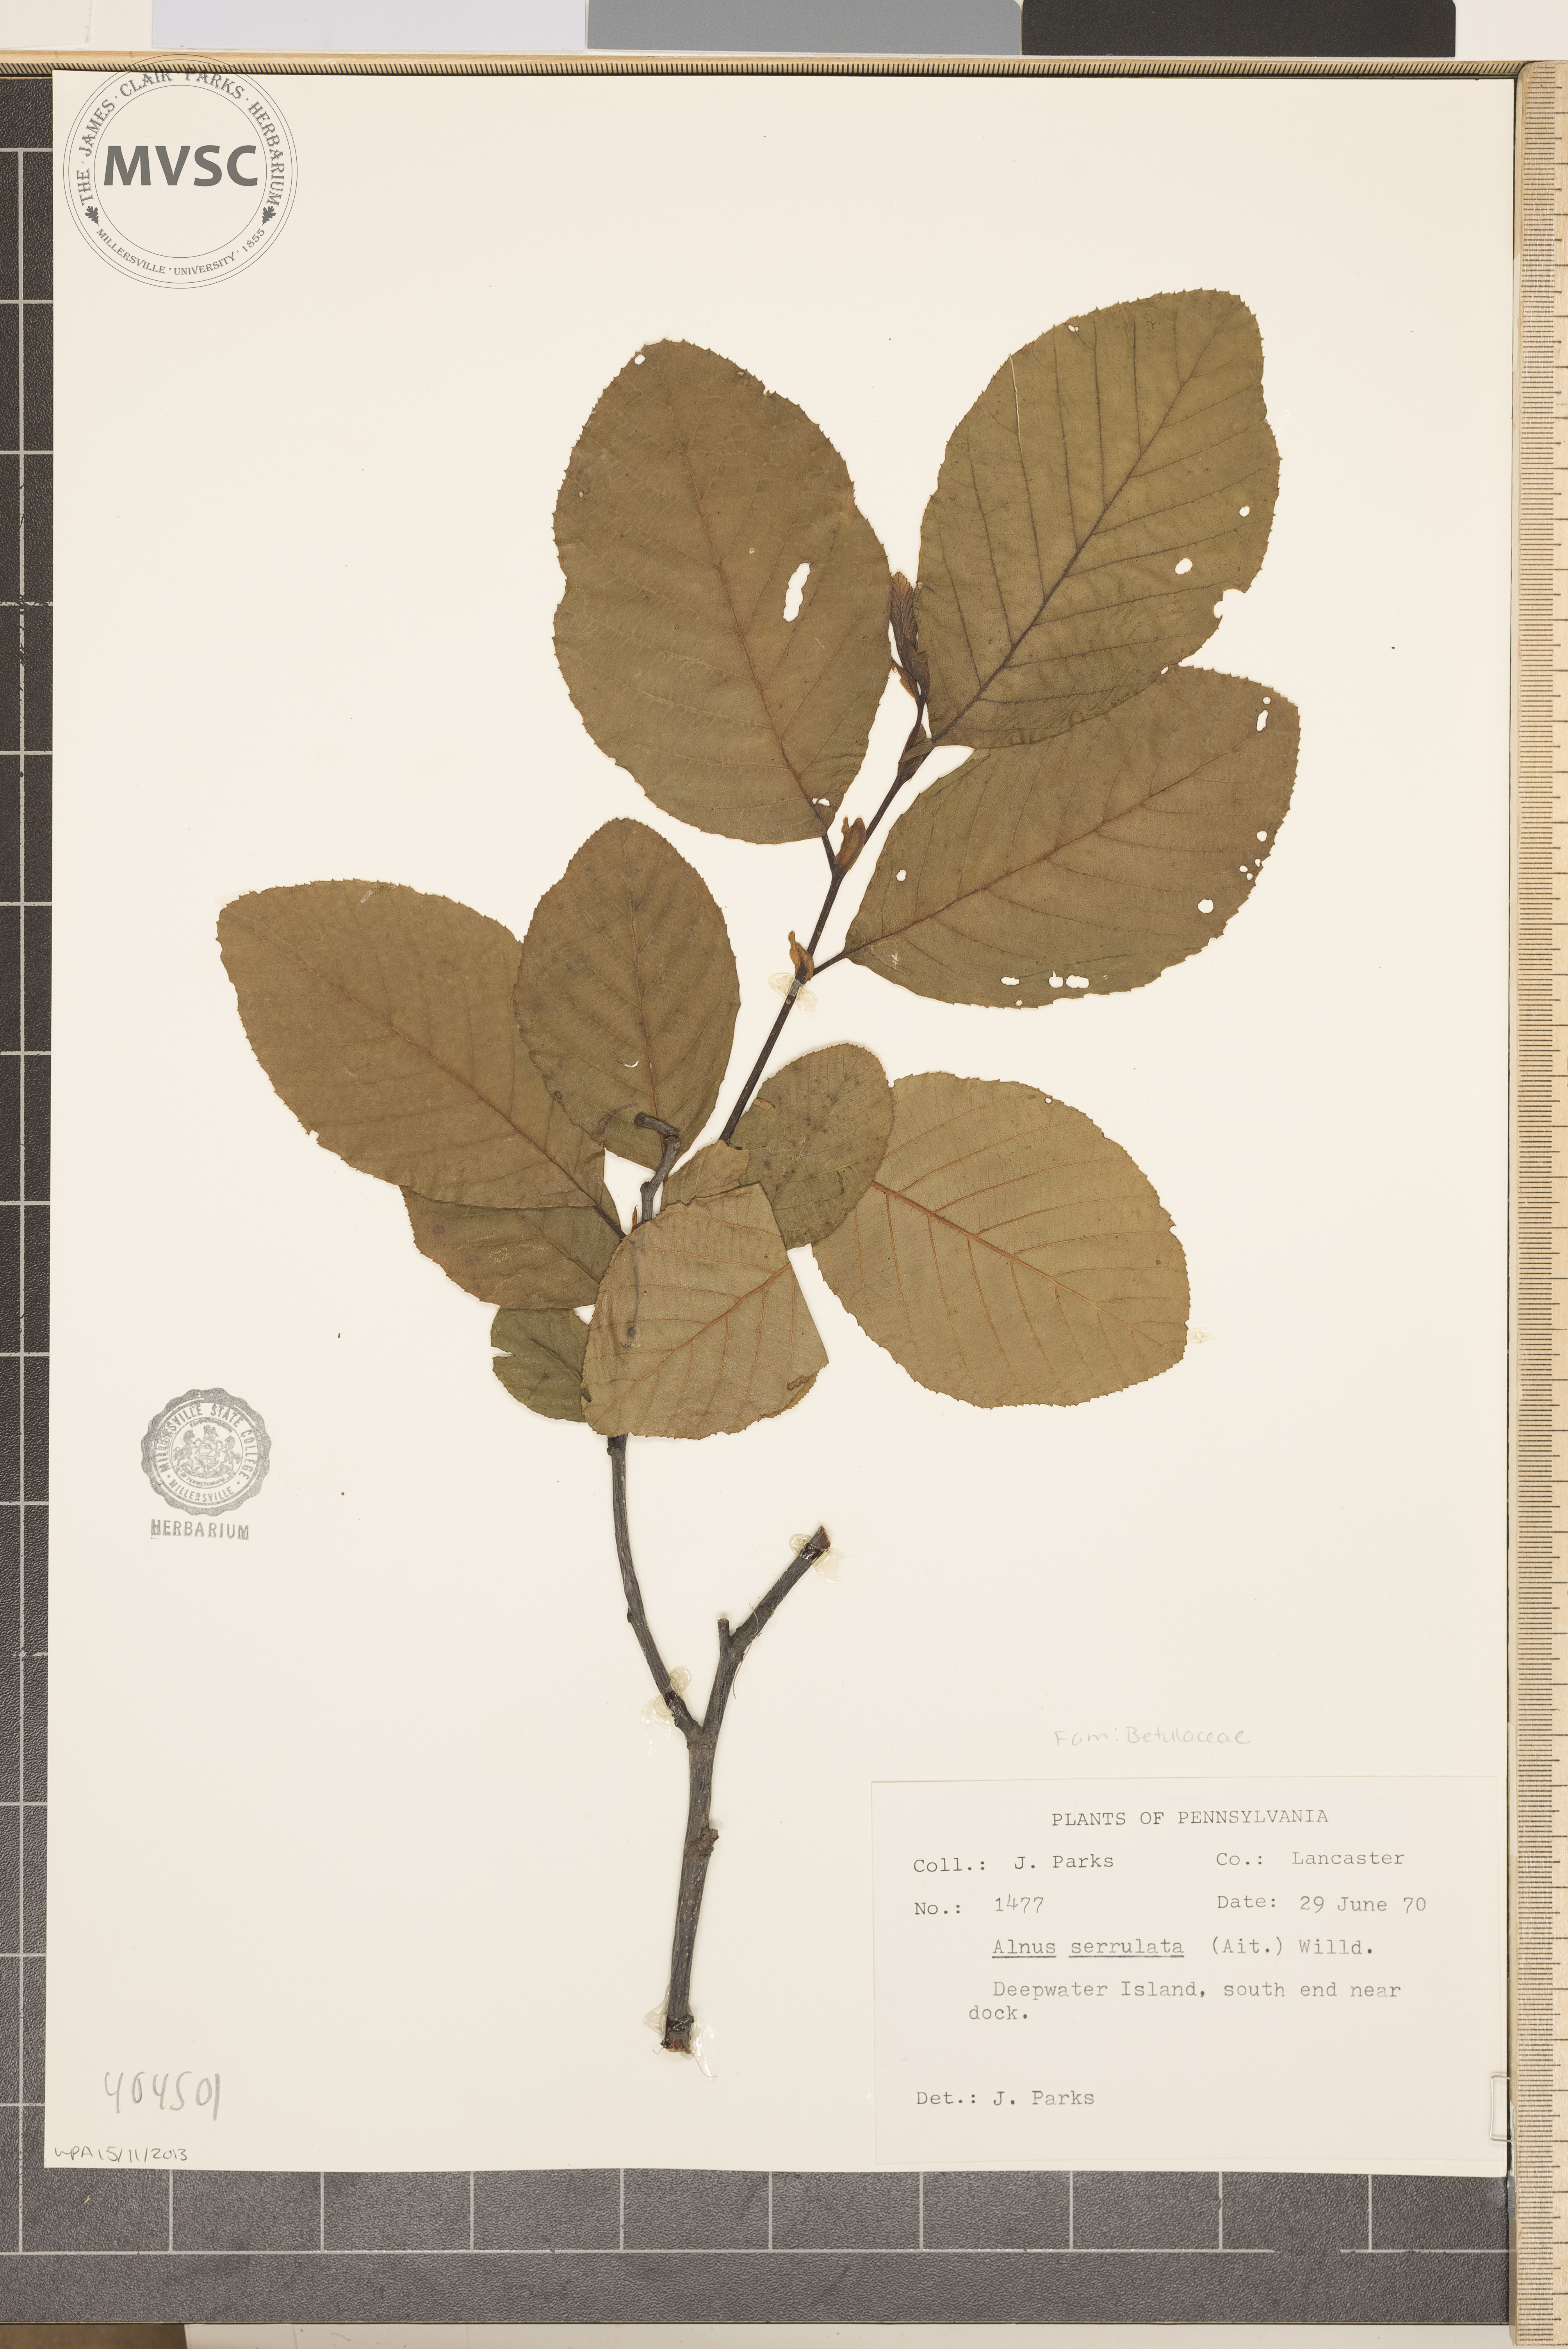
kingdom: Plantae
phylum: Tracheophyta
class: Magnoliopsida
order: Fagales
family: Betulaceae
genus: Alnus
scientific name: Alnus serrulata
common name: Hazel alder
